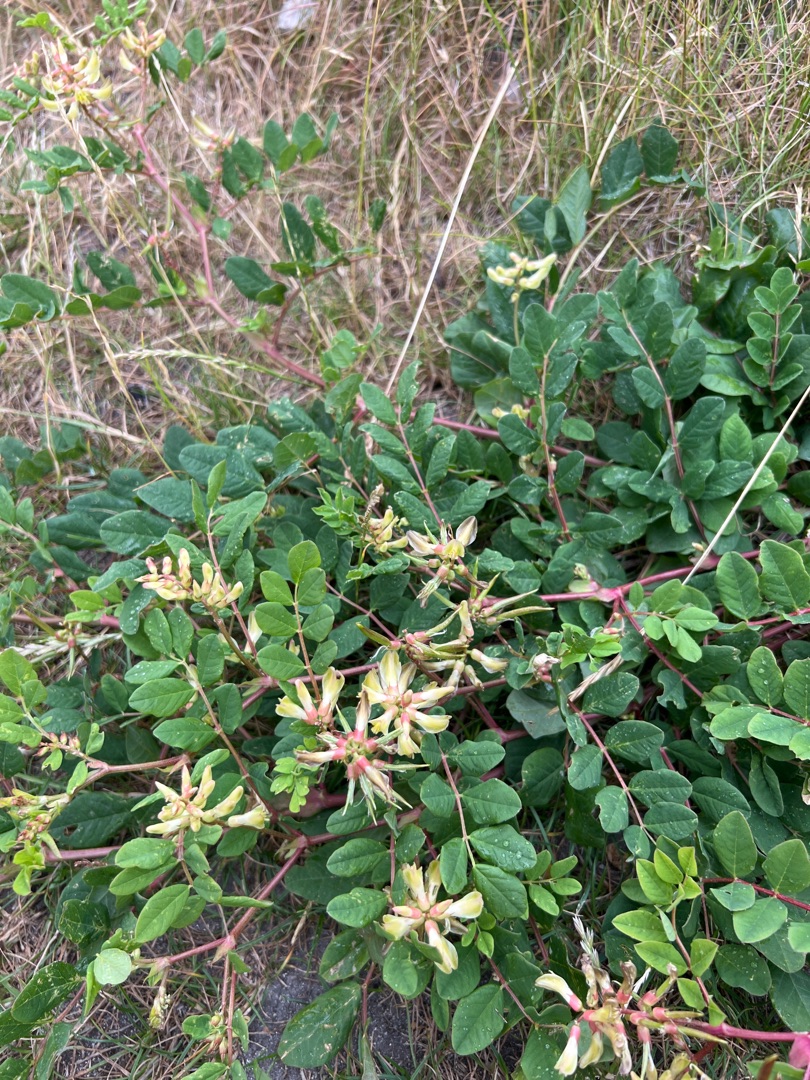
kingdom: Plantae
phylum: Tracheophyta
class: Magnoliopsida
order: Fabales
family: Fabaceae
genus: Astragalus
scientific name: Astragalus glycyphyllos
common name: Sød astragel
